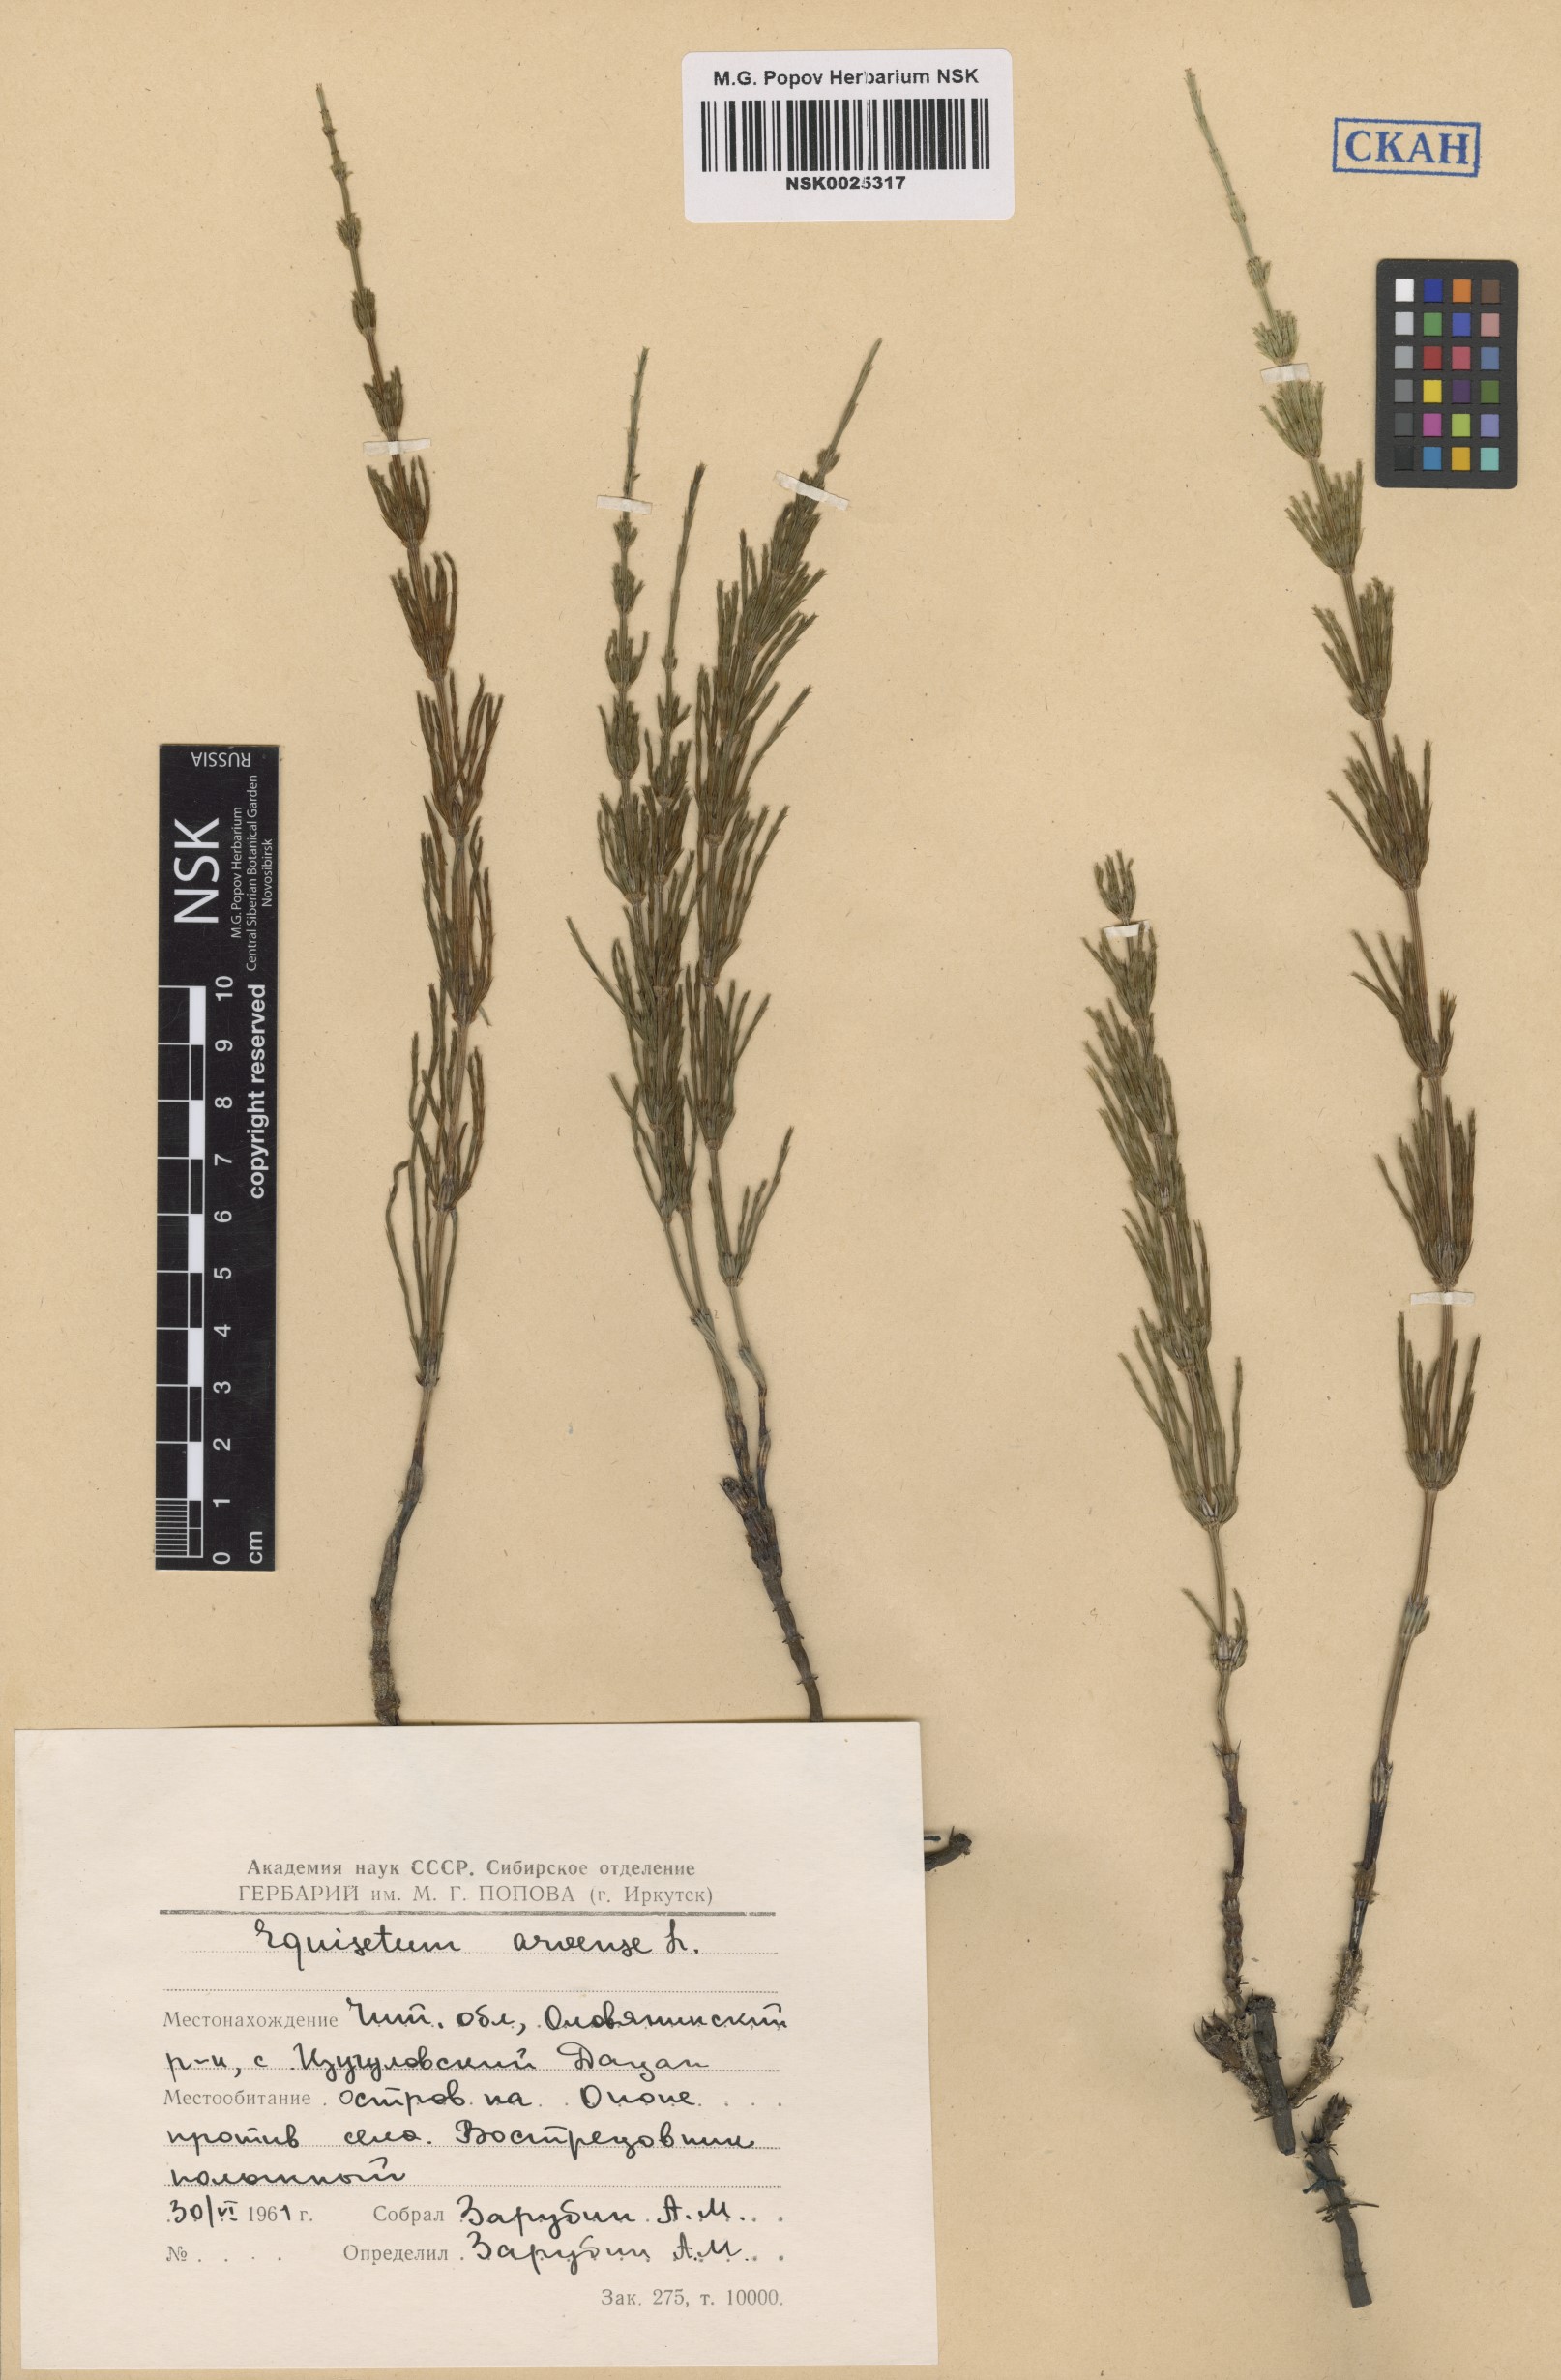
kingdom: Plantae
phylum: Tracheophyta
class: Polypodiopsida
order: Equisetales
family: Equisetaceae
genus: Equisetum
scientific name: Equisetum arvense
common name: Field horsetail
